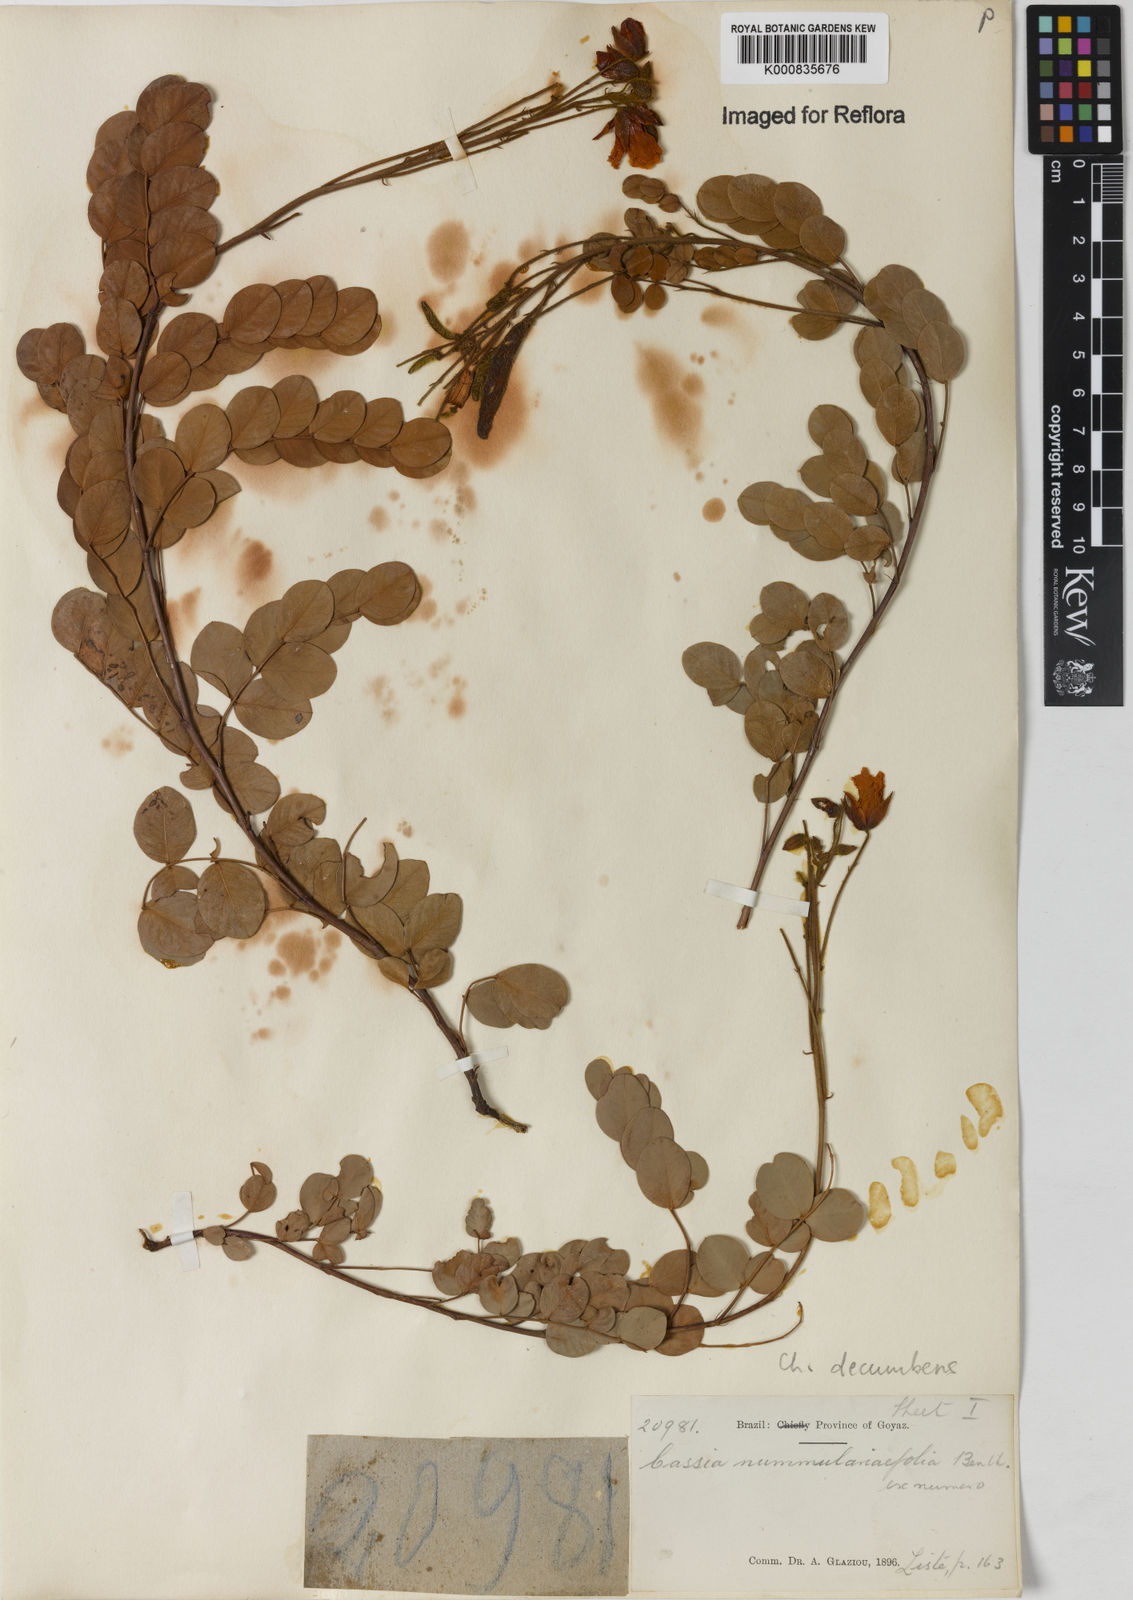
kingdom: Plantae
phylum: Tracheophyta
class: Magnoliopsida
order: Fabales
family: Fabaceae
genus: Chamaecrista
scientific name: Chamaecrista decumbens
